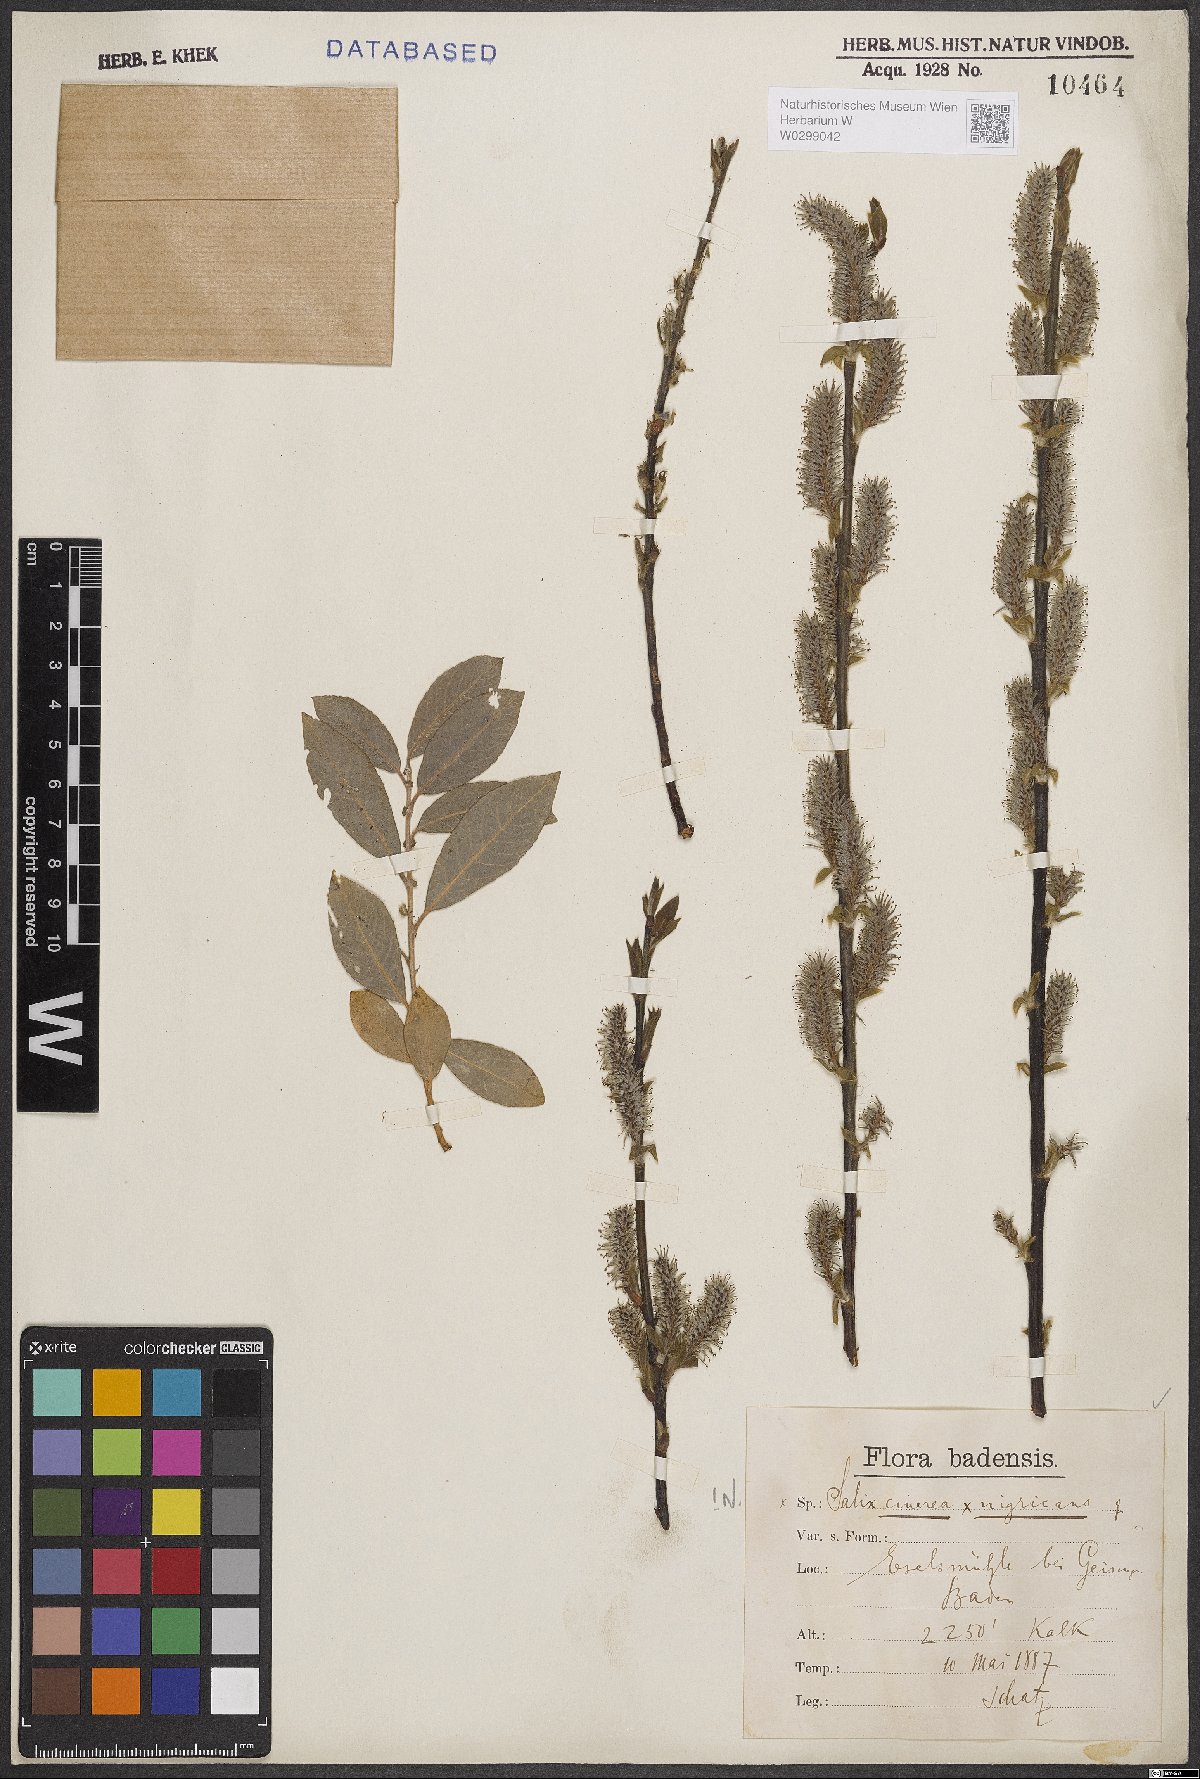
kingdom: Plantae
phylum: Tracheophyta
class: Magnoliopsida
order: Malpighiales
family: Salicaceae
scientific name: Salicaceae
